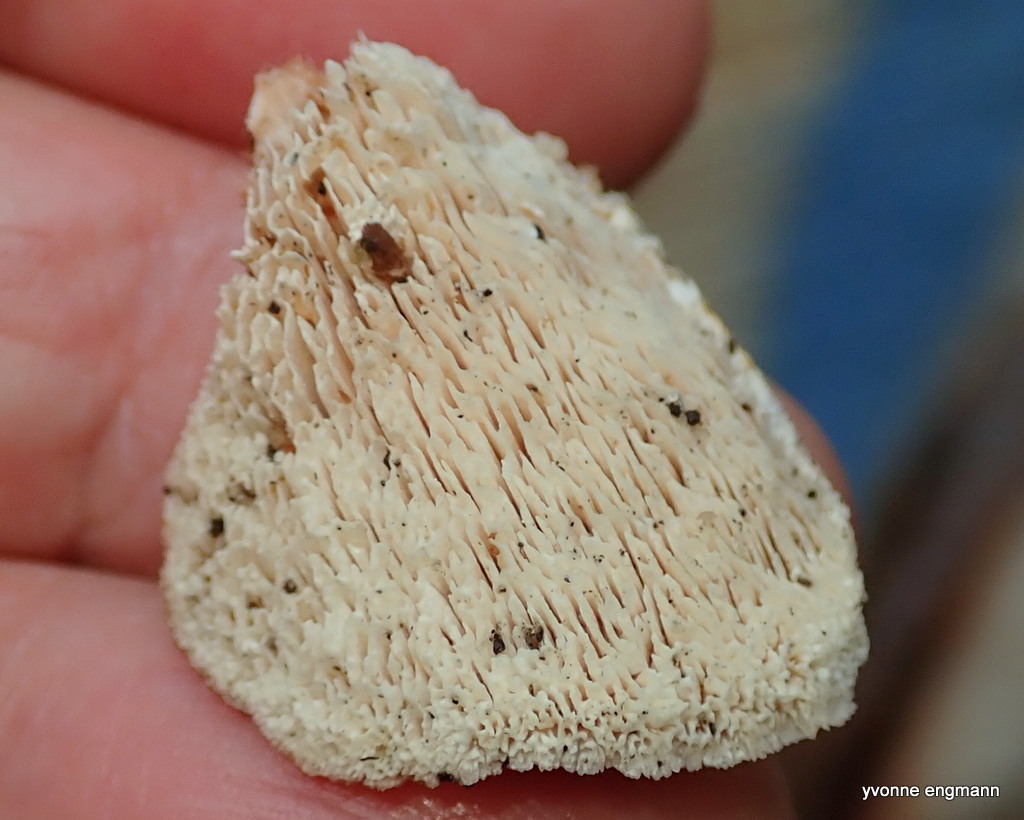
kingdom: Fungi
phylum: Basidiomycota
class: Agaricomycetes
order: Polyporales
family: Podoscyphaceae
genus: Abortiporus
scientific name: Abortiporus biennis
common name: rødmende pjalteporesvamp
